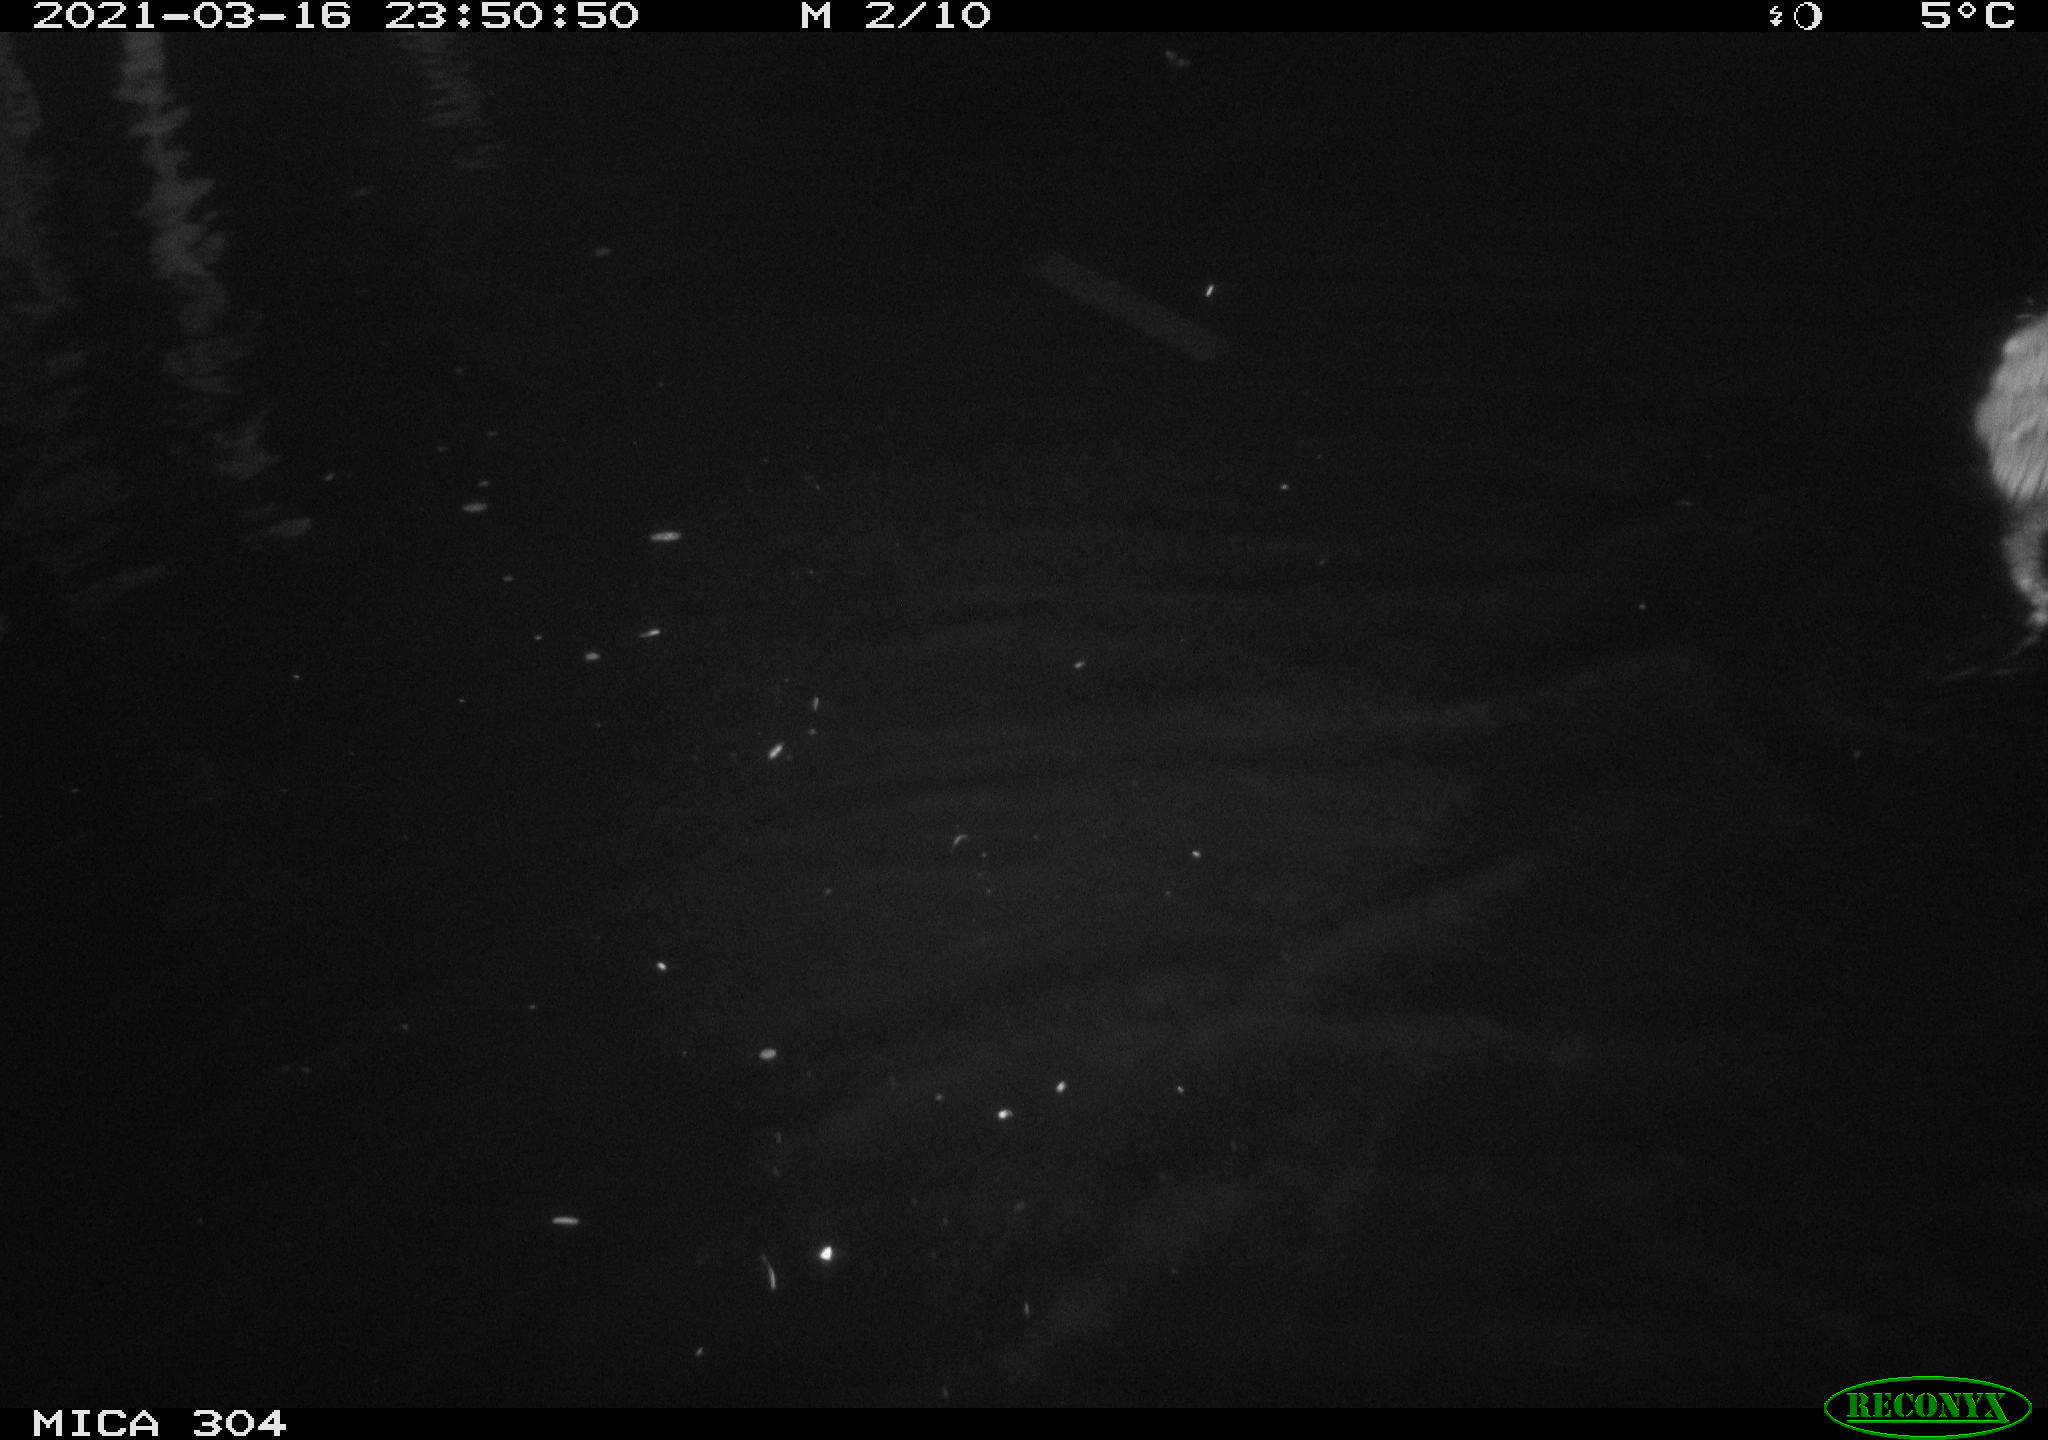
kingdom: Animalia
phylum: Chordata
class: Mammalia
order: Rodentia
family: Cricetidae
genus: Ondatra
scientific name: Ondatra zibethicus
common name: Muskrat
